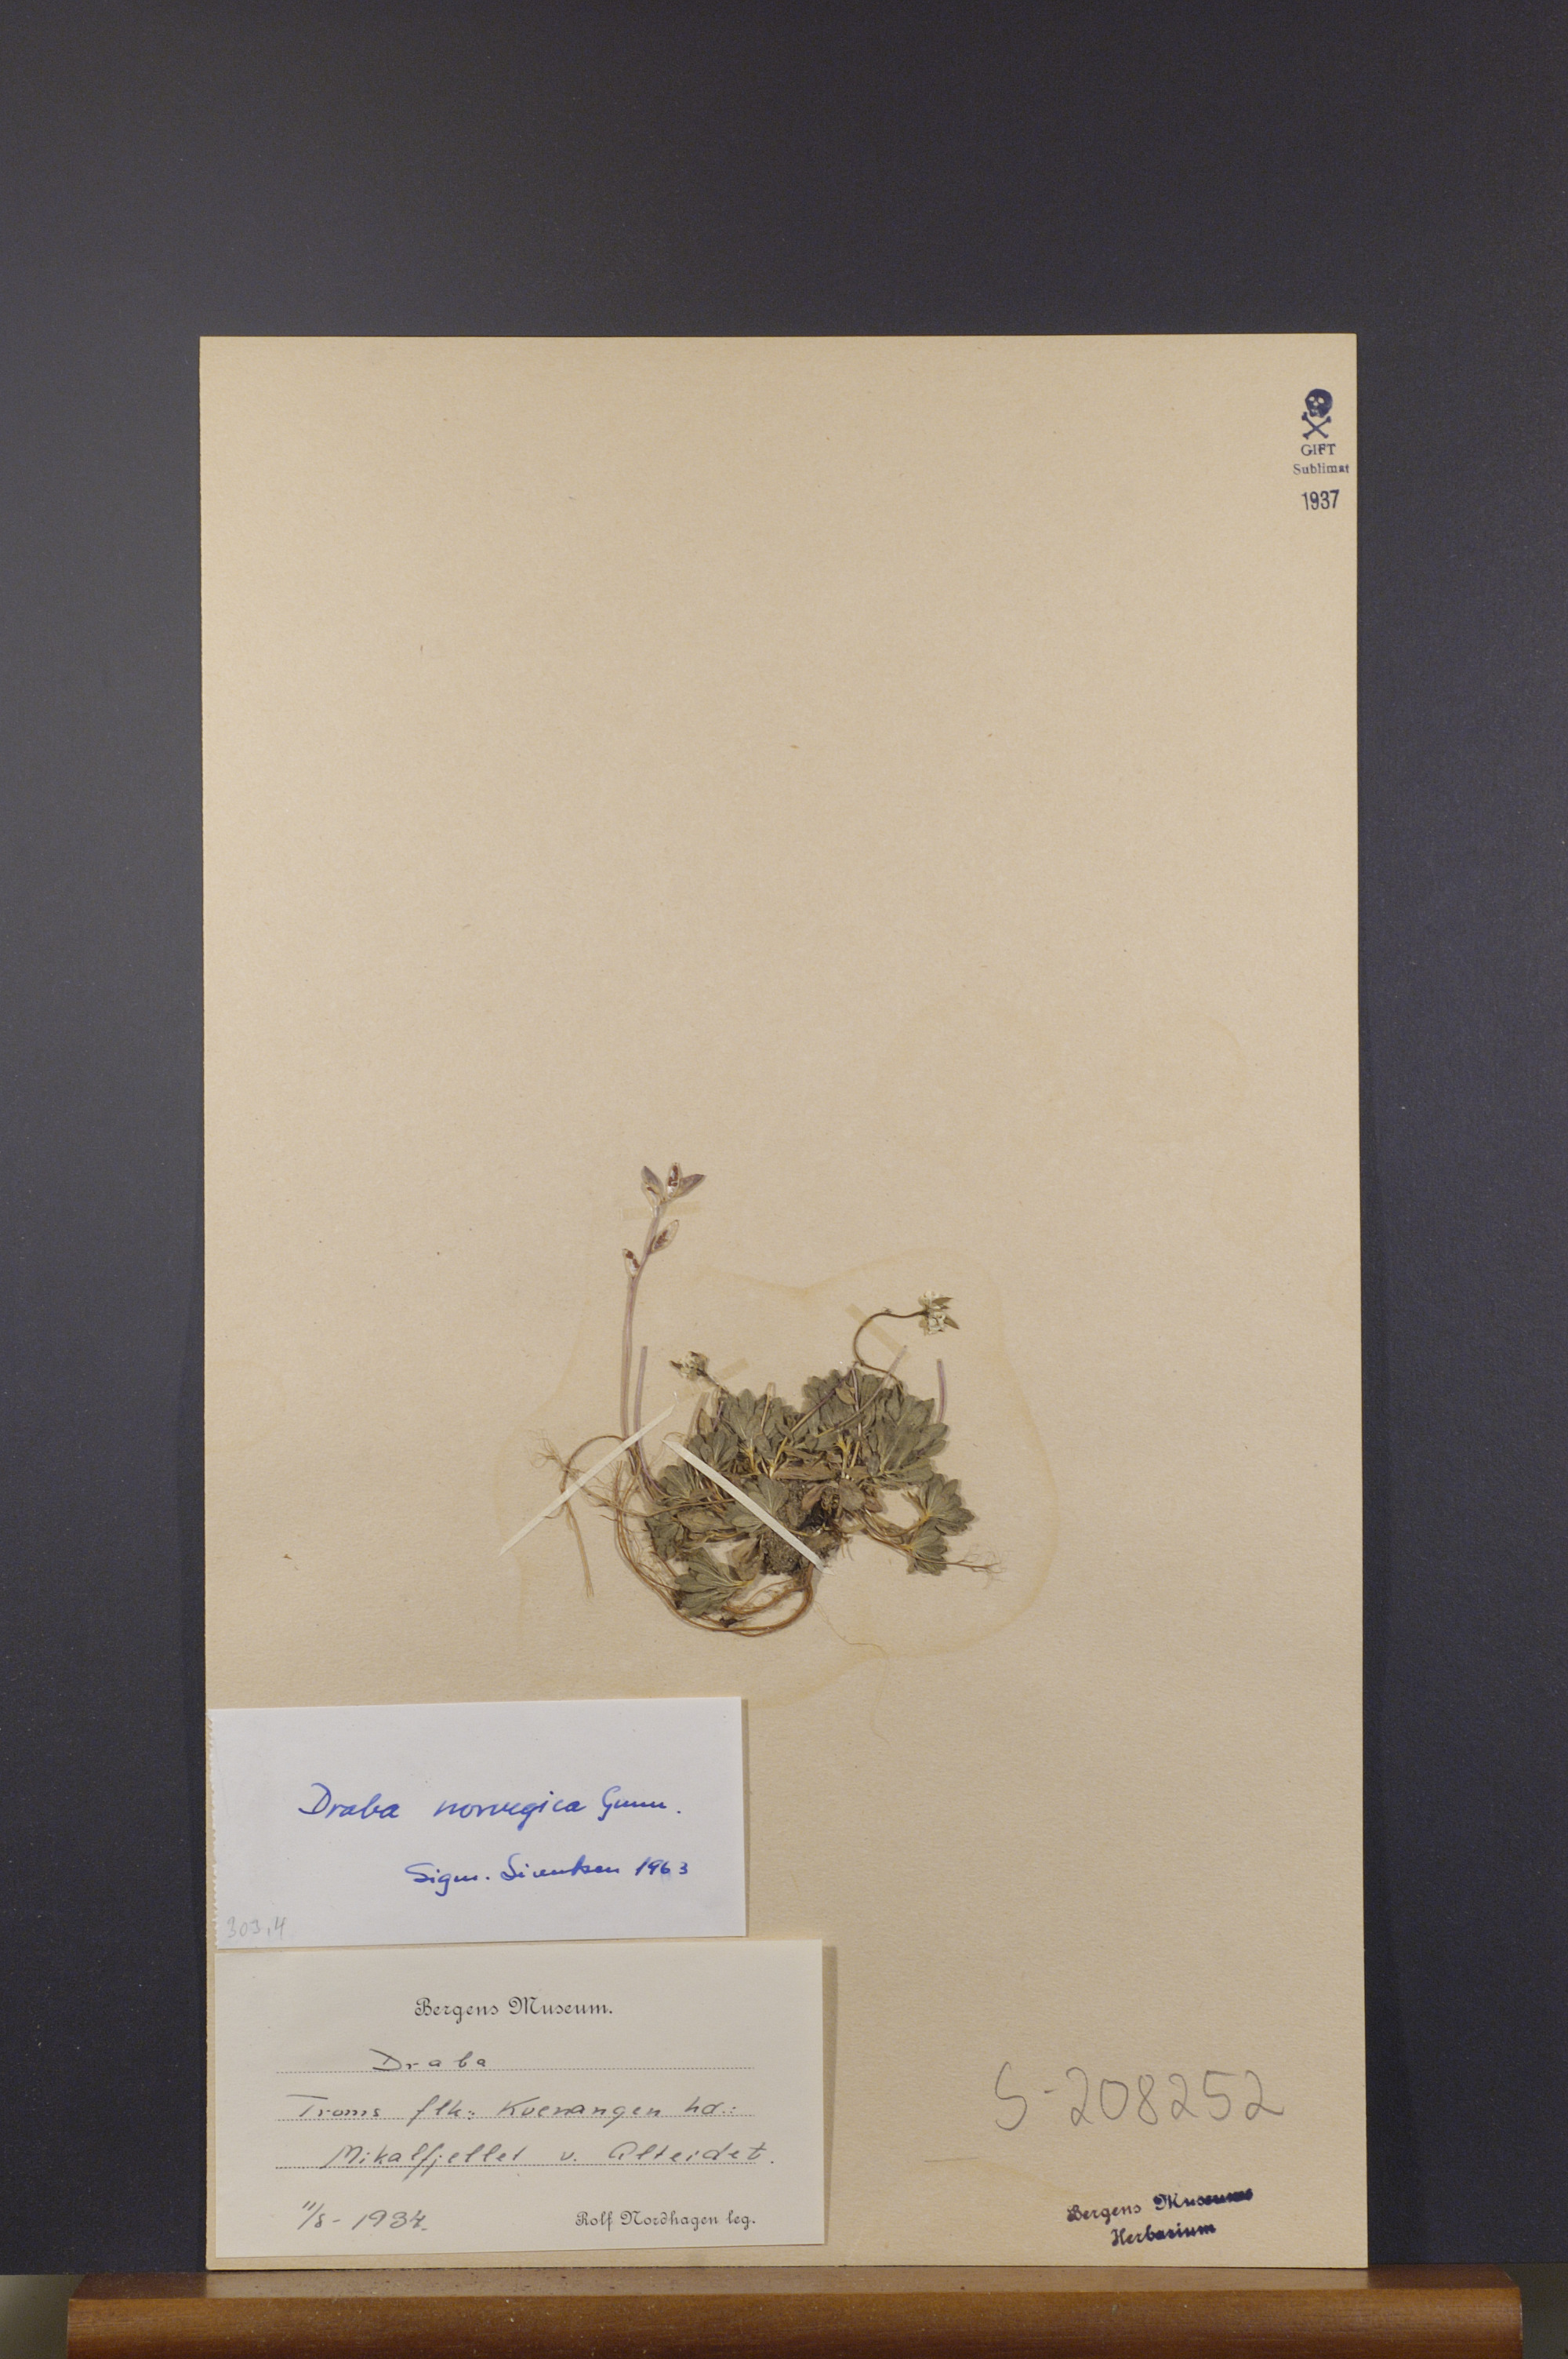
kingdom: Plantae
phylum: Tracheophyta
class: Magnoliopsida
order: Brassicales
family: Brassicaceae
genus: Draba
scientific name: Draba norvegica
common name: Rock whitlowgrass
